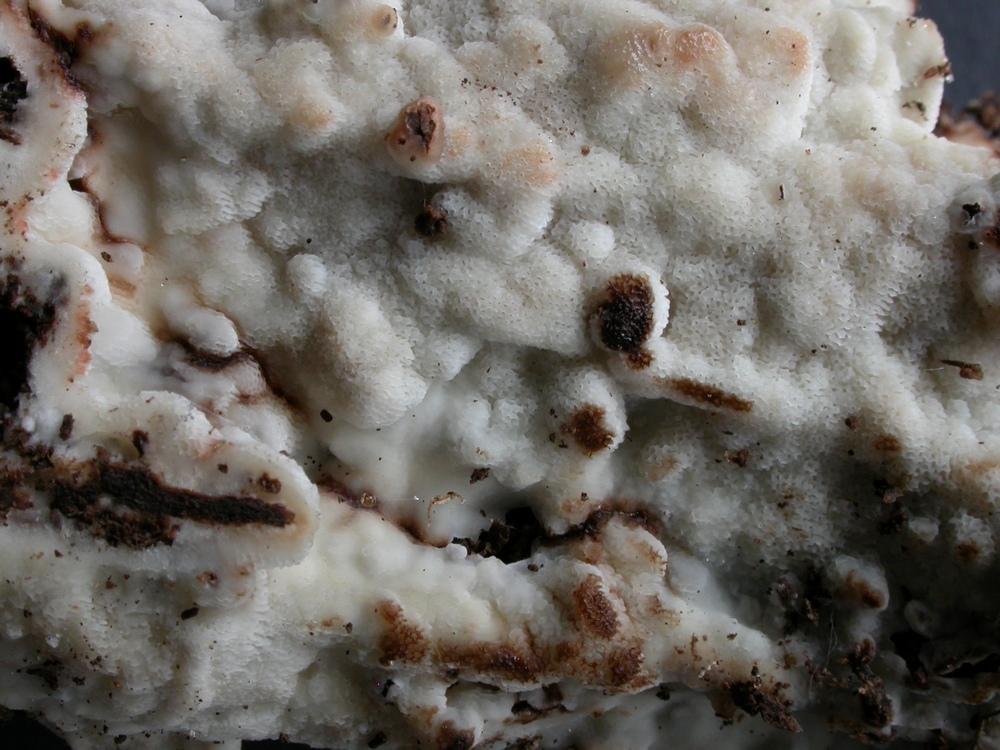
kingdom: Fungi
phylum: Basidiomycota
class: Agaricomycetes
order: Polyporales
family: Meripilaceae
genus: Rigidoporus
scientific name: Rigidoporus sanguinolentus
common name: blod-skorpeporesvamp
